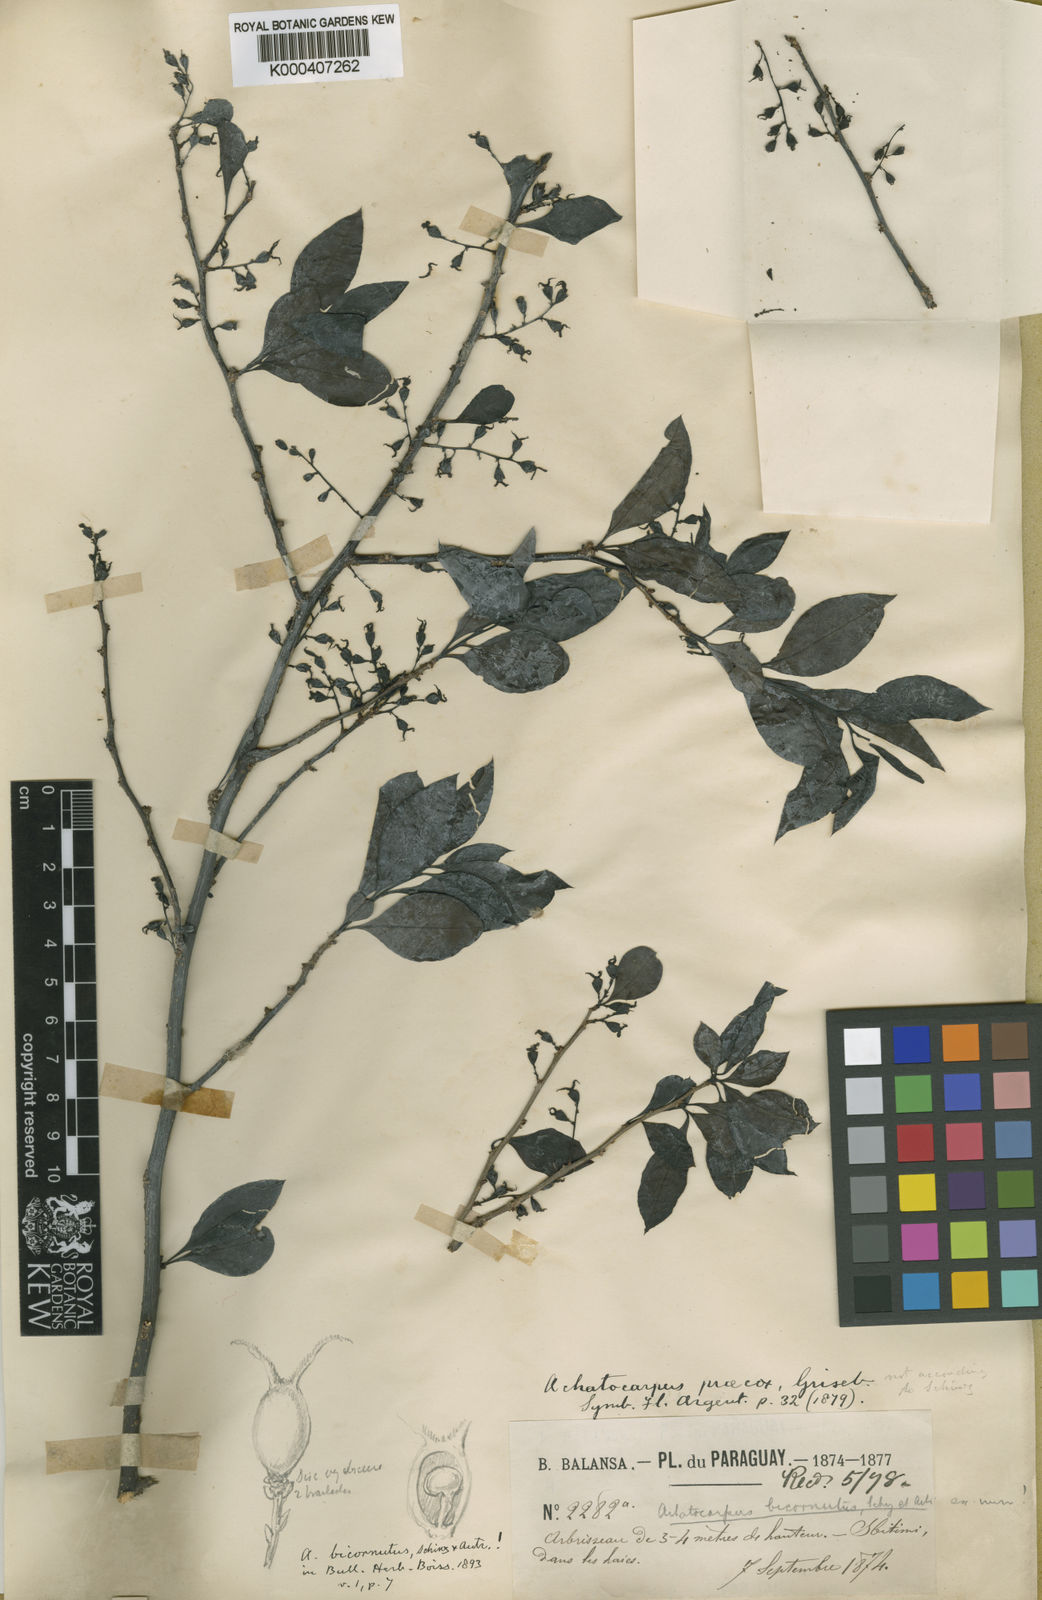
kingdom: Plantae
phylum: Tracheophyta
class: Magnoliopsida
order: Caryophyllales
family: Achatocarpaceae
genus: Achatocarpus
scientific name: Achatocarpus praecox
